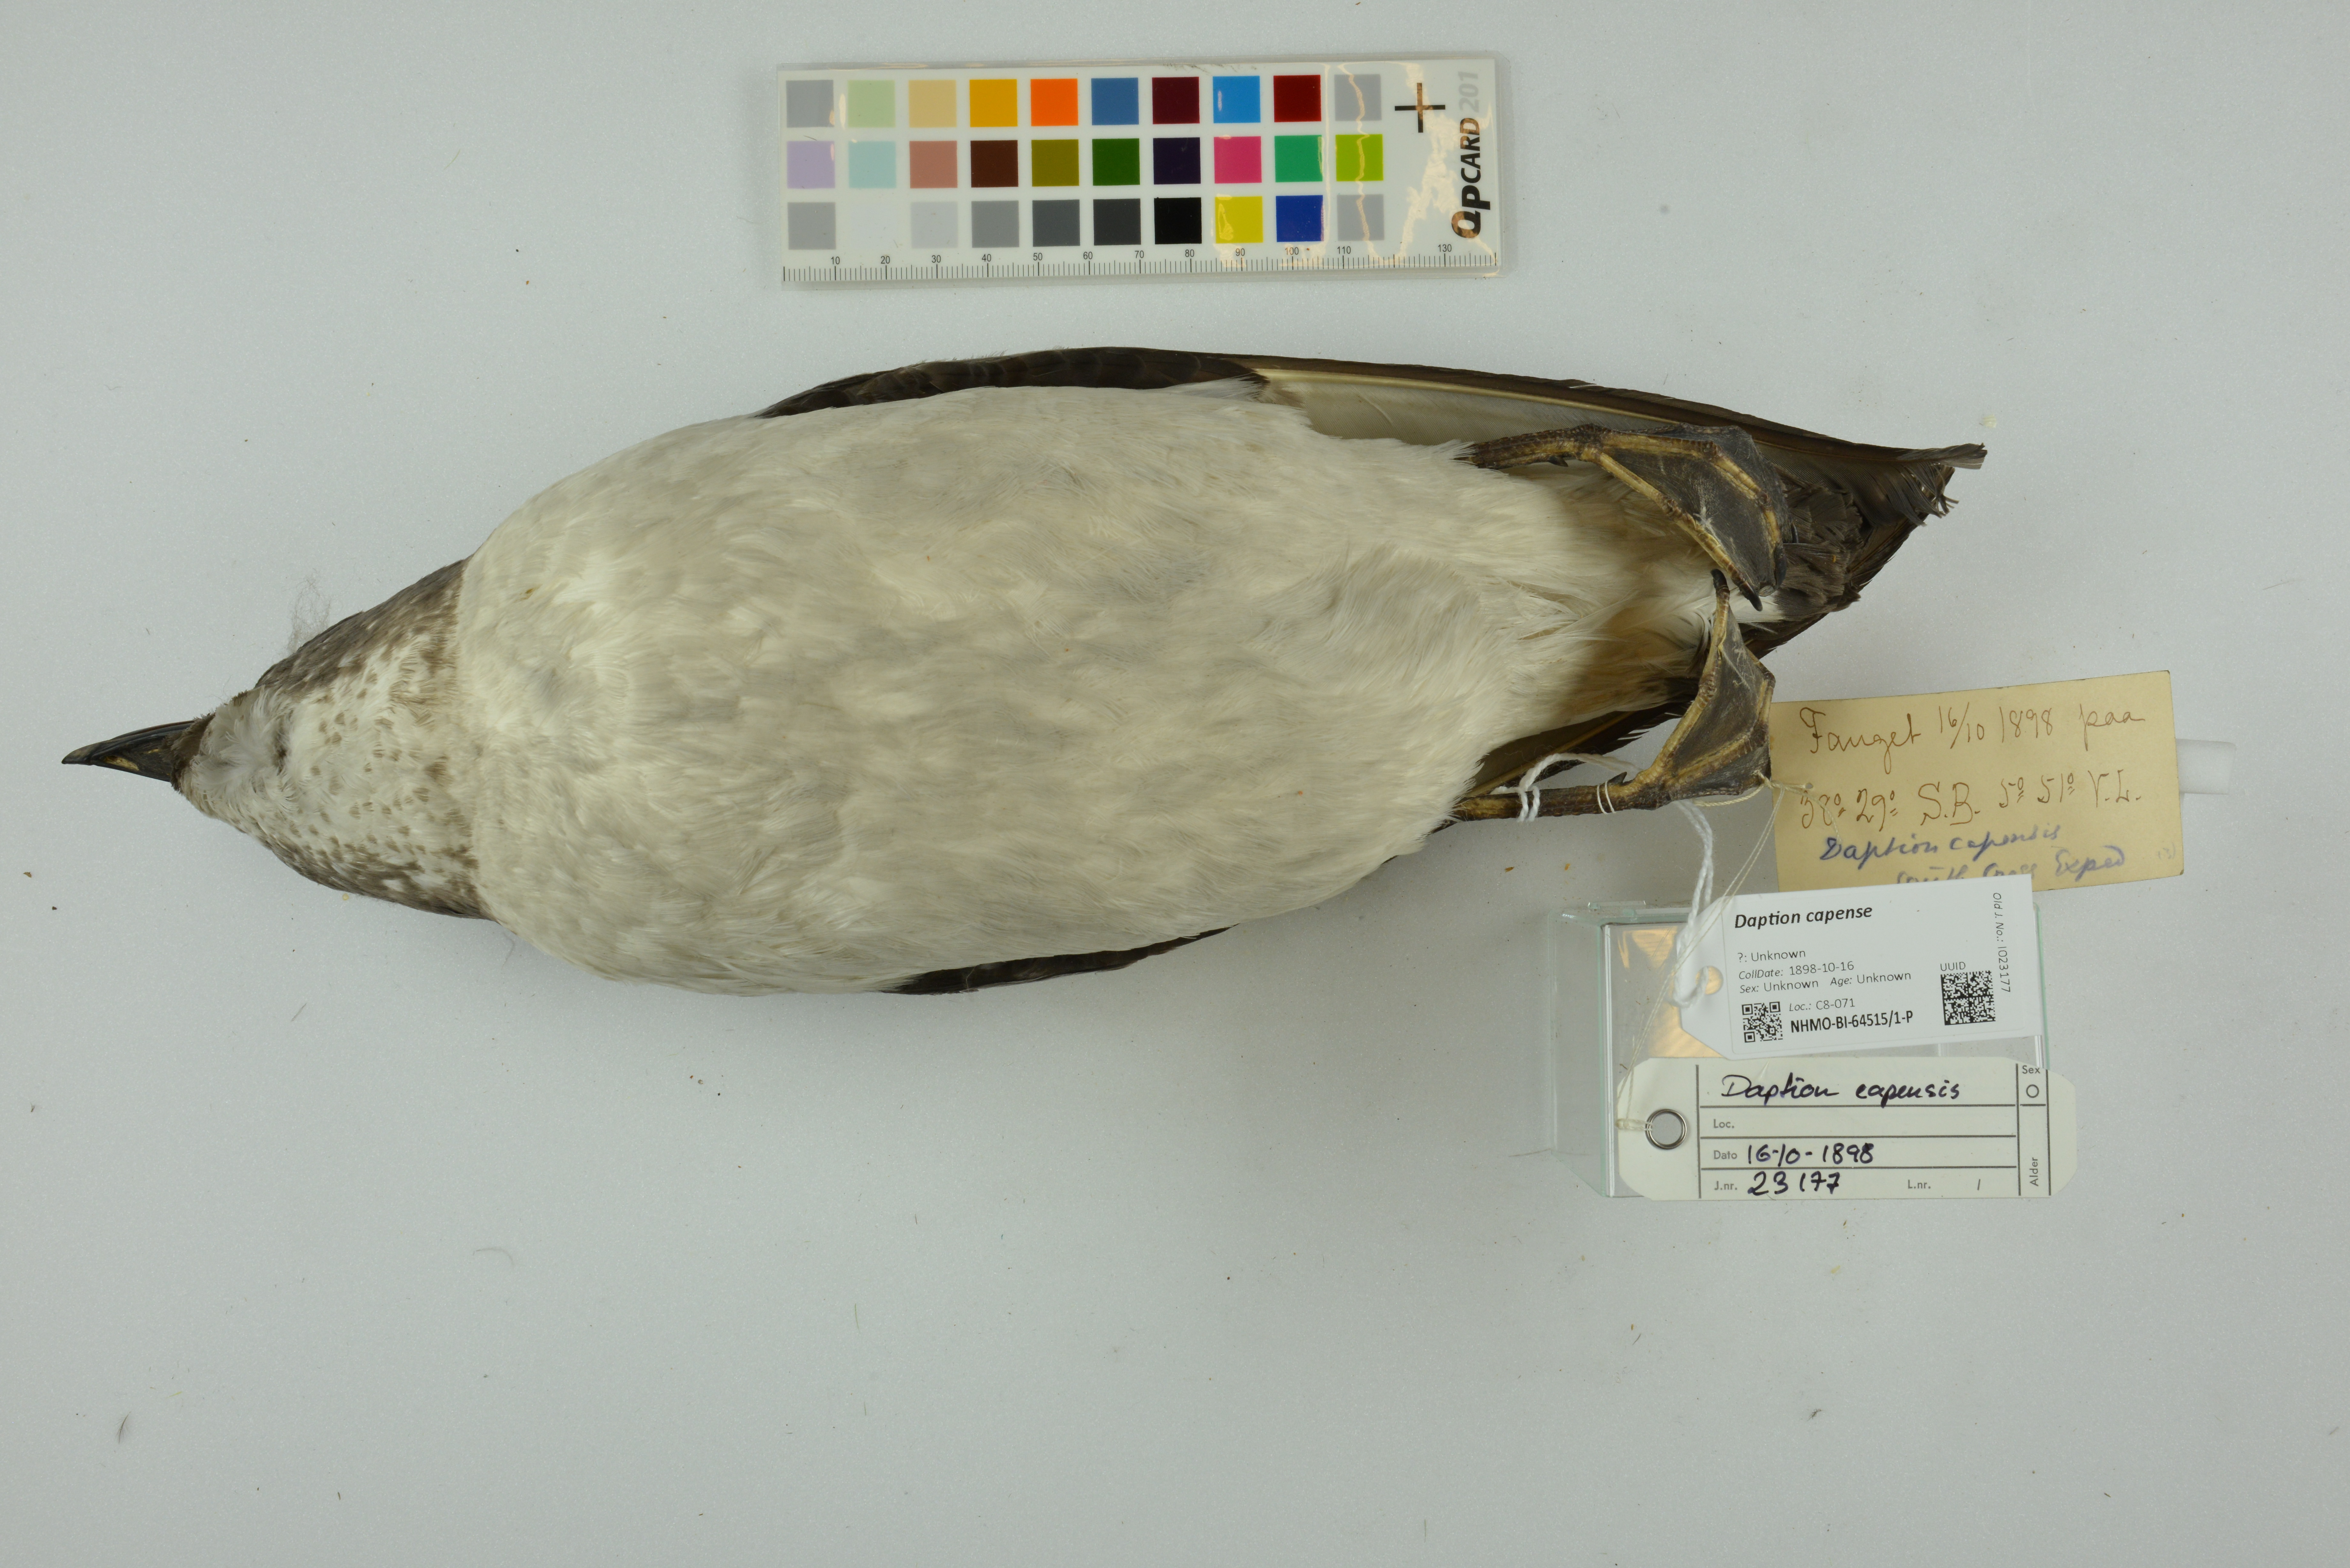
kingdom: Animalia
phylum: Chordata
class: Aves
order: Procellariiformes
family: Procellariidae
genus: Daption
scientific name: Daption capense
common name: Cape petrel
